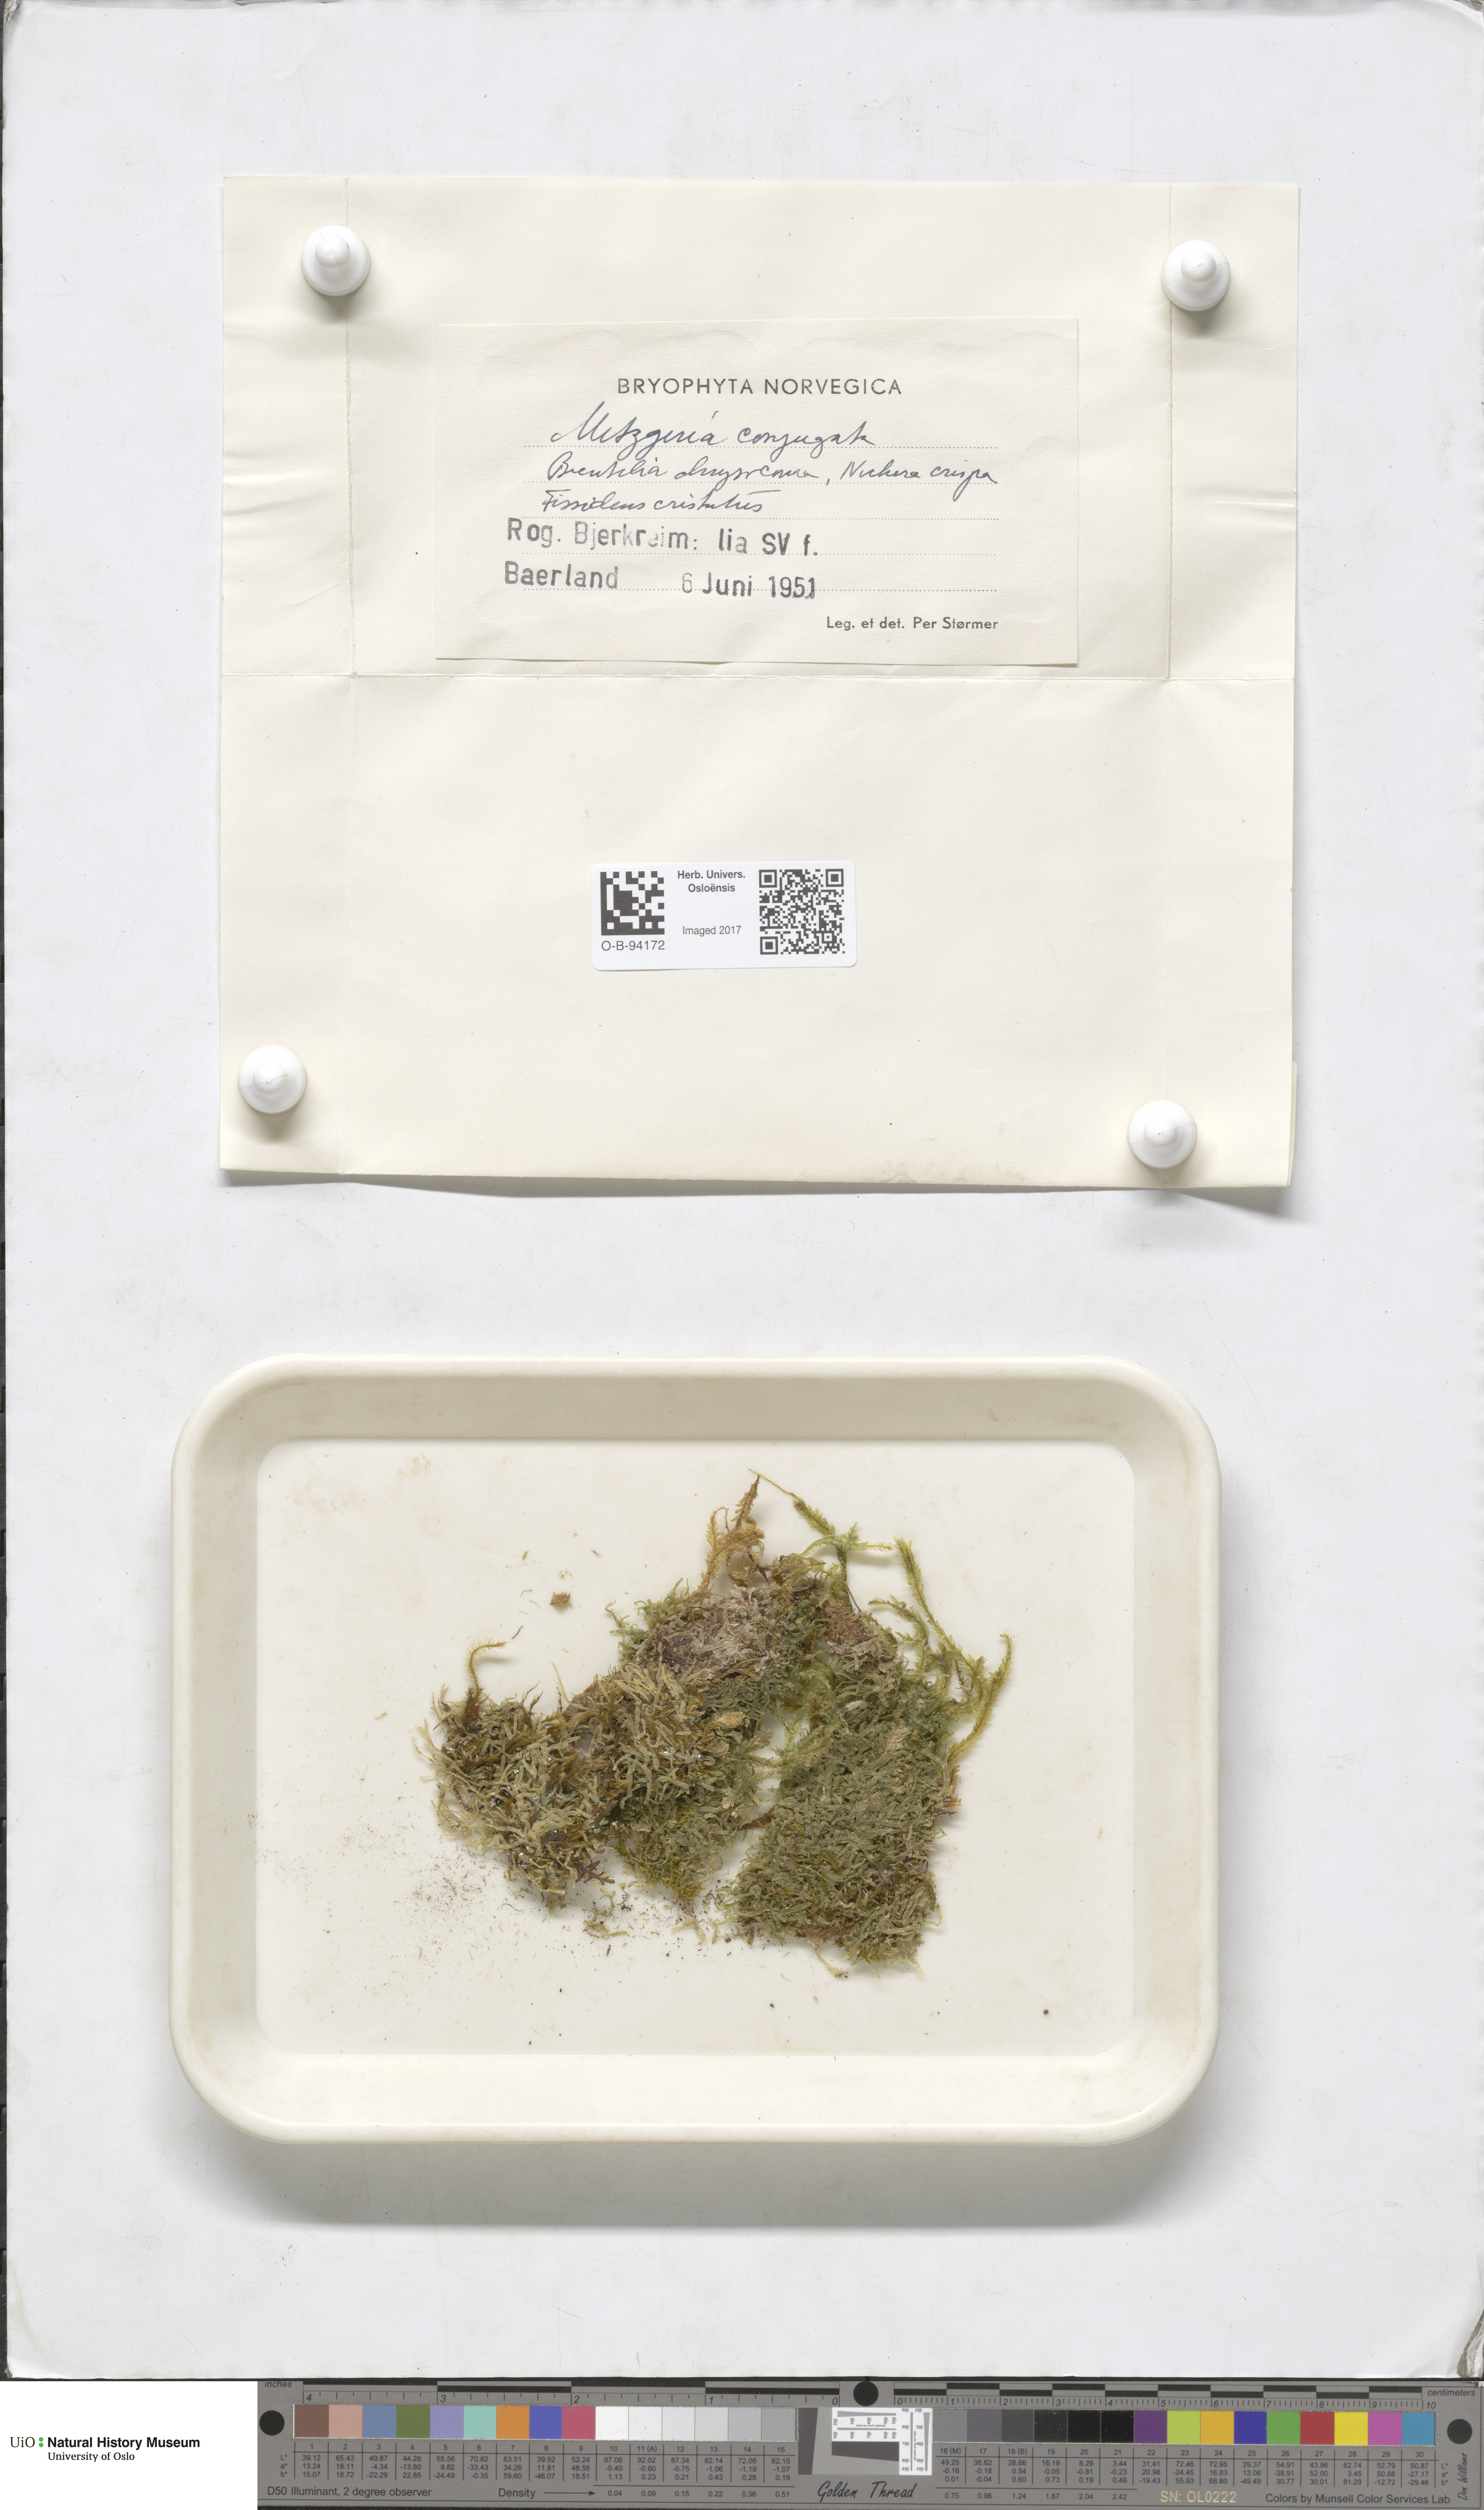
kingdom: Plantae
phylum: Marchantiophyta
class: Jungermanniopsida
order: Metzgeriales
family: Metzgeriaceae
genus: Metzgeria
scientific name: Metzgeria conjugata
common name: Rock veilwort
